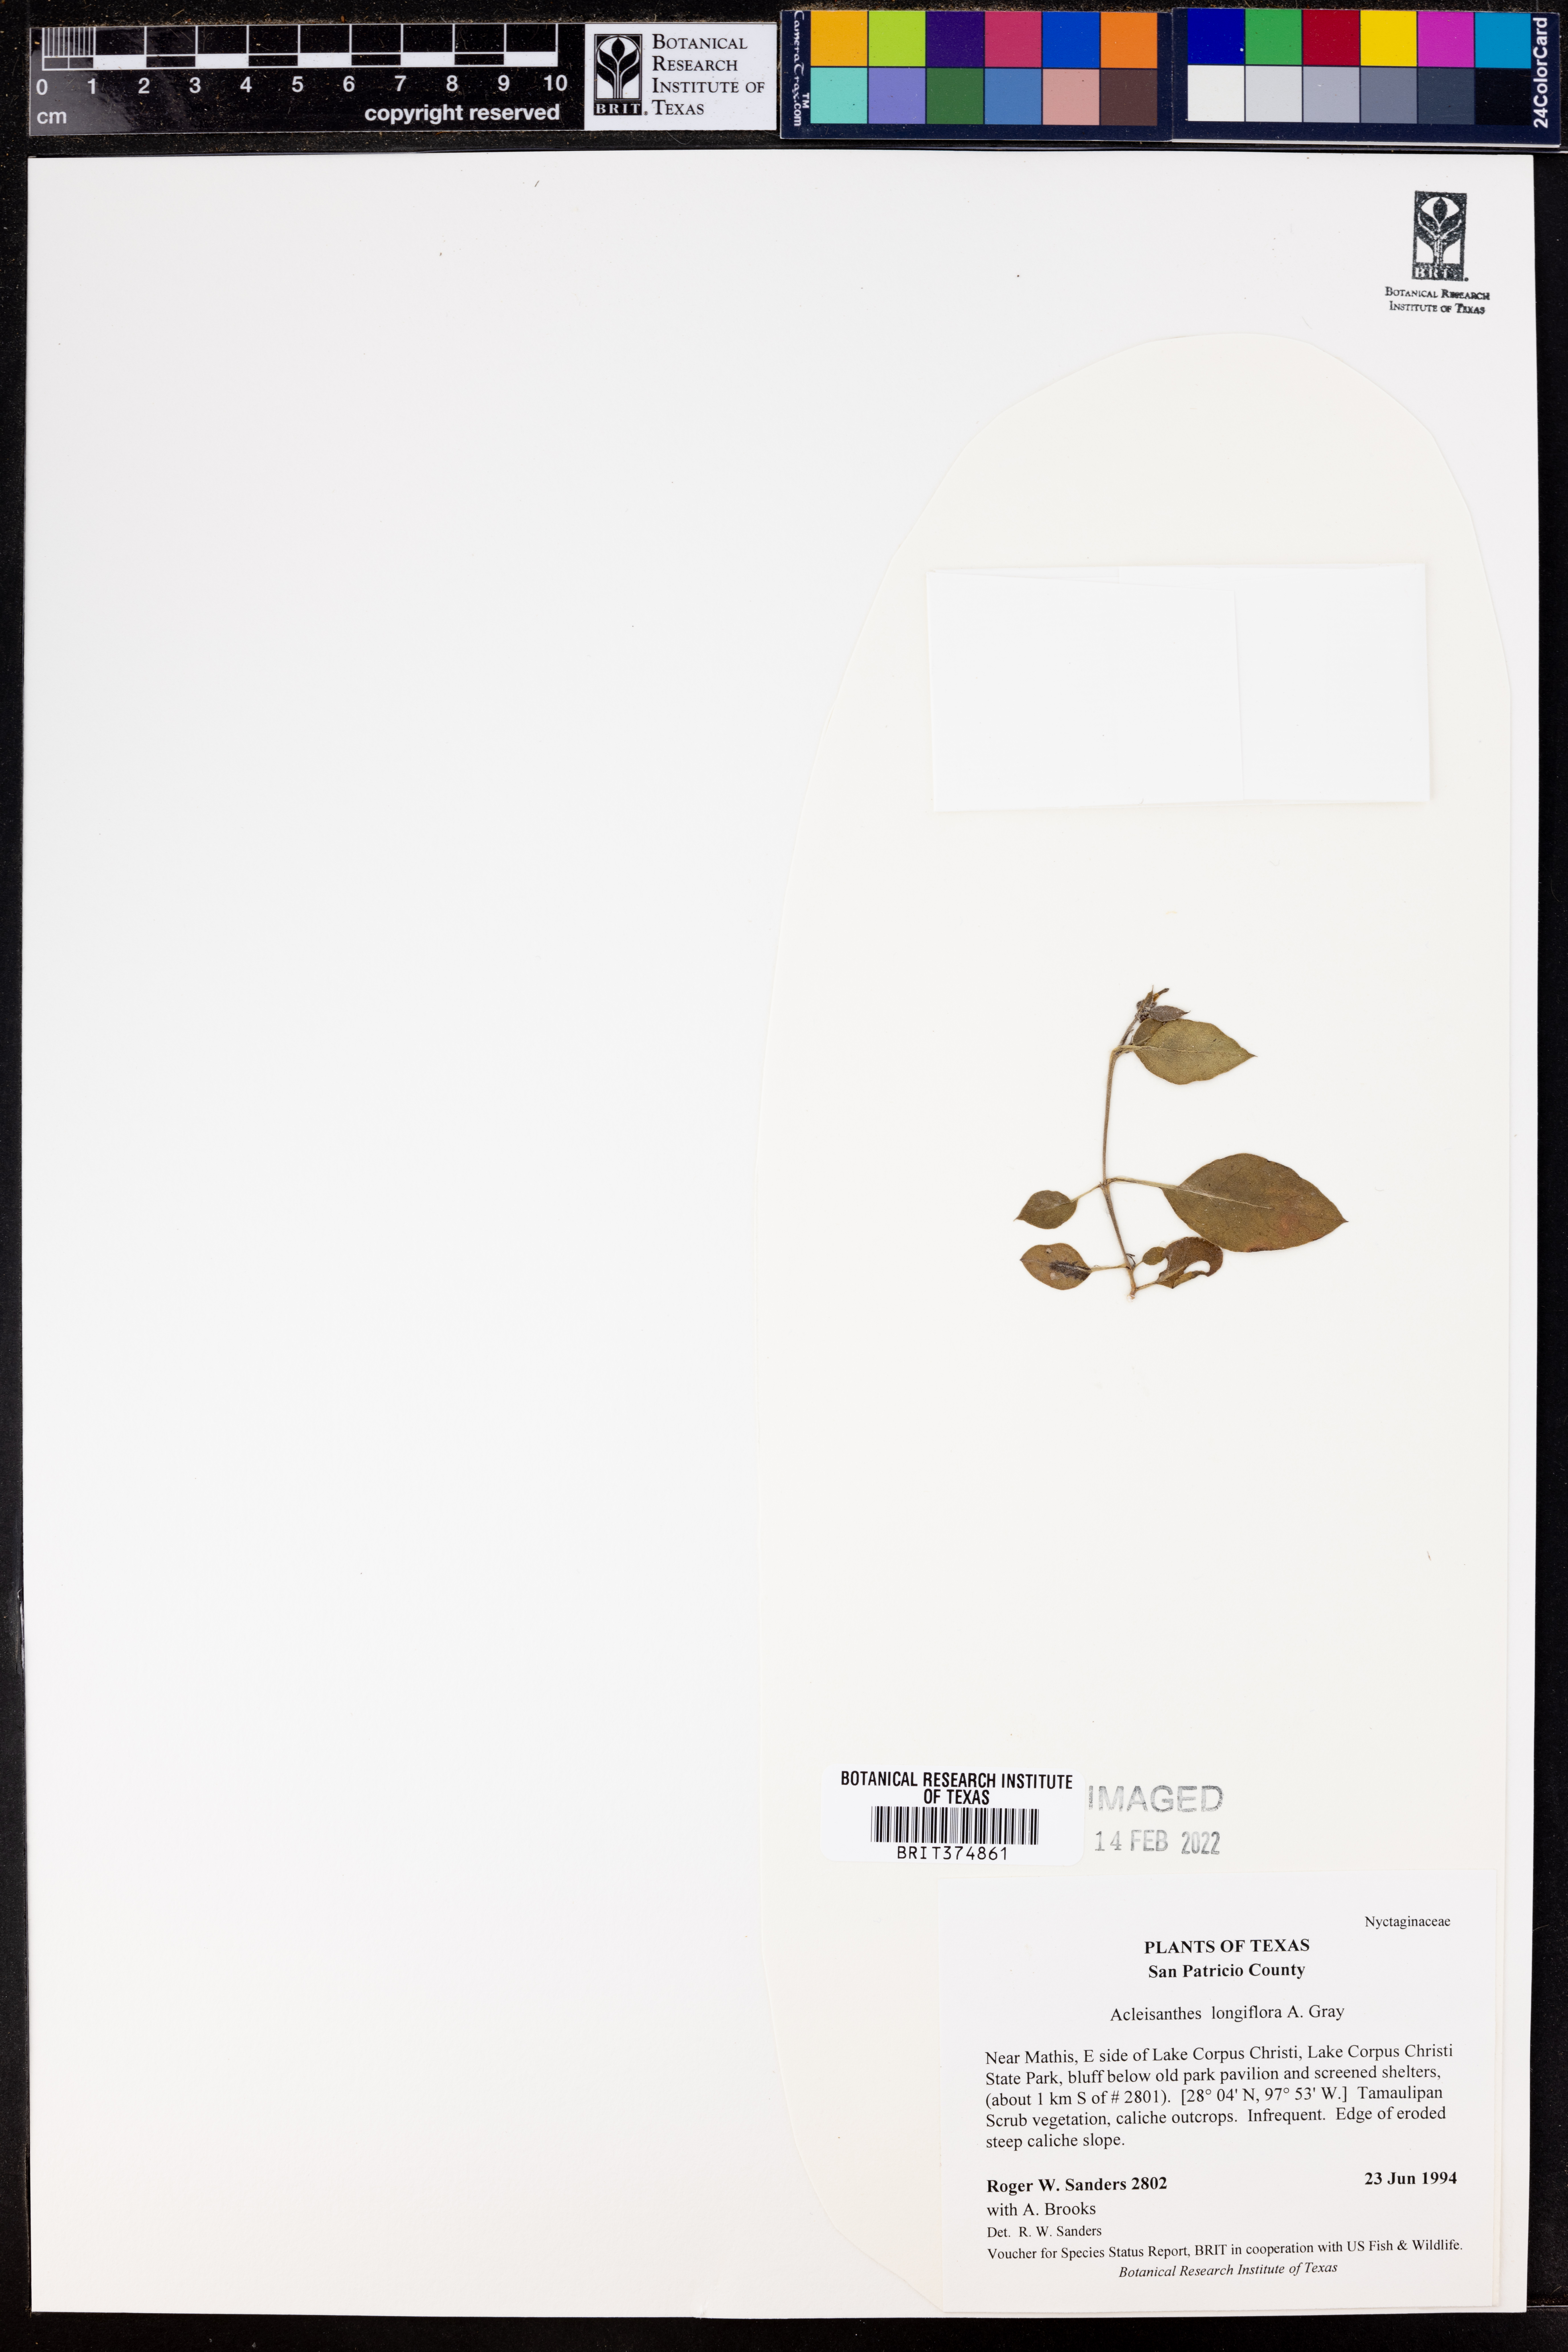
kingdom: Plantae
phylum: Tracheophyta
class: Magnoliopsida
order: Caryophyllales
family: Nyctaginaceae
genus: Acleisanthes
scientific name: Acleisanthes longiflora
